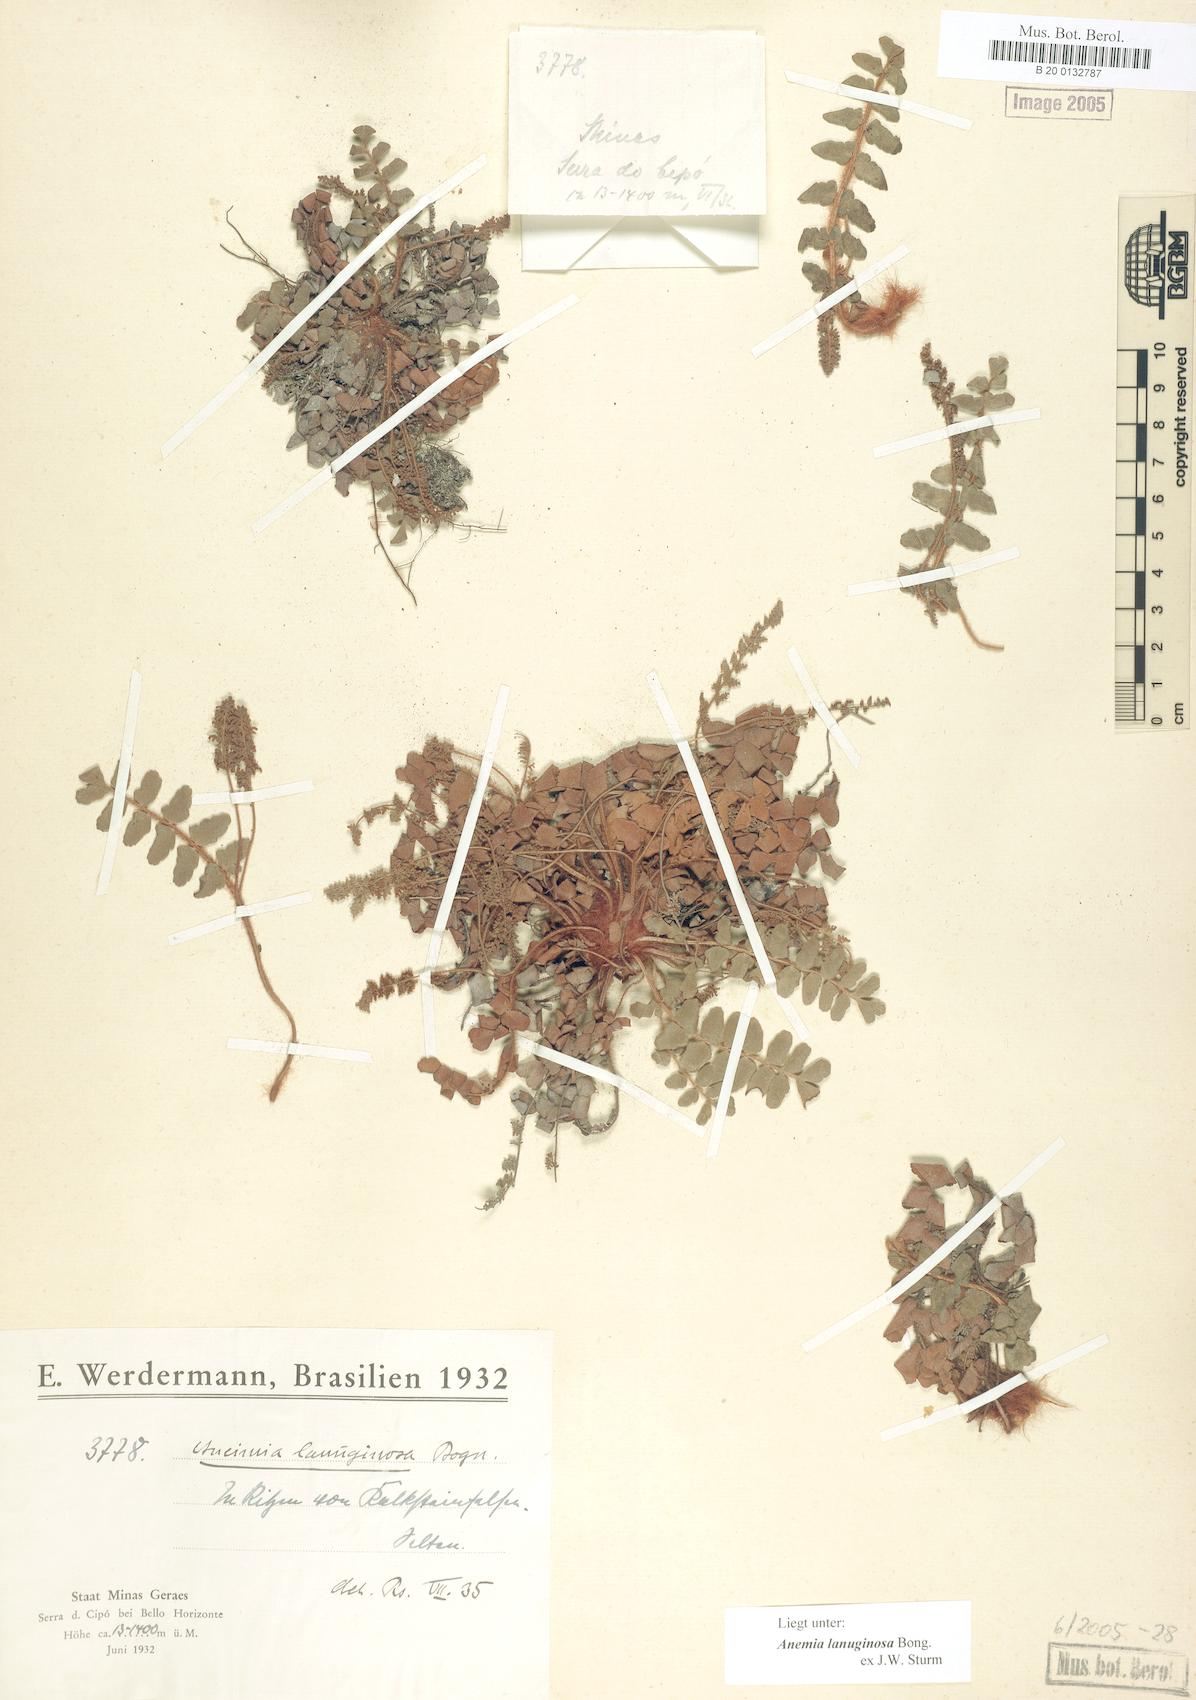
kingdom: Plantae
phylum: Tracheophyta
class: Polypodiopsida
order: Schizaeales
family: Anemiaceae
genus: Anemia
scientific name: Anemia lanuginosa
